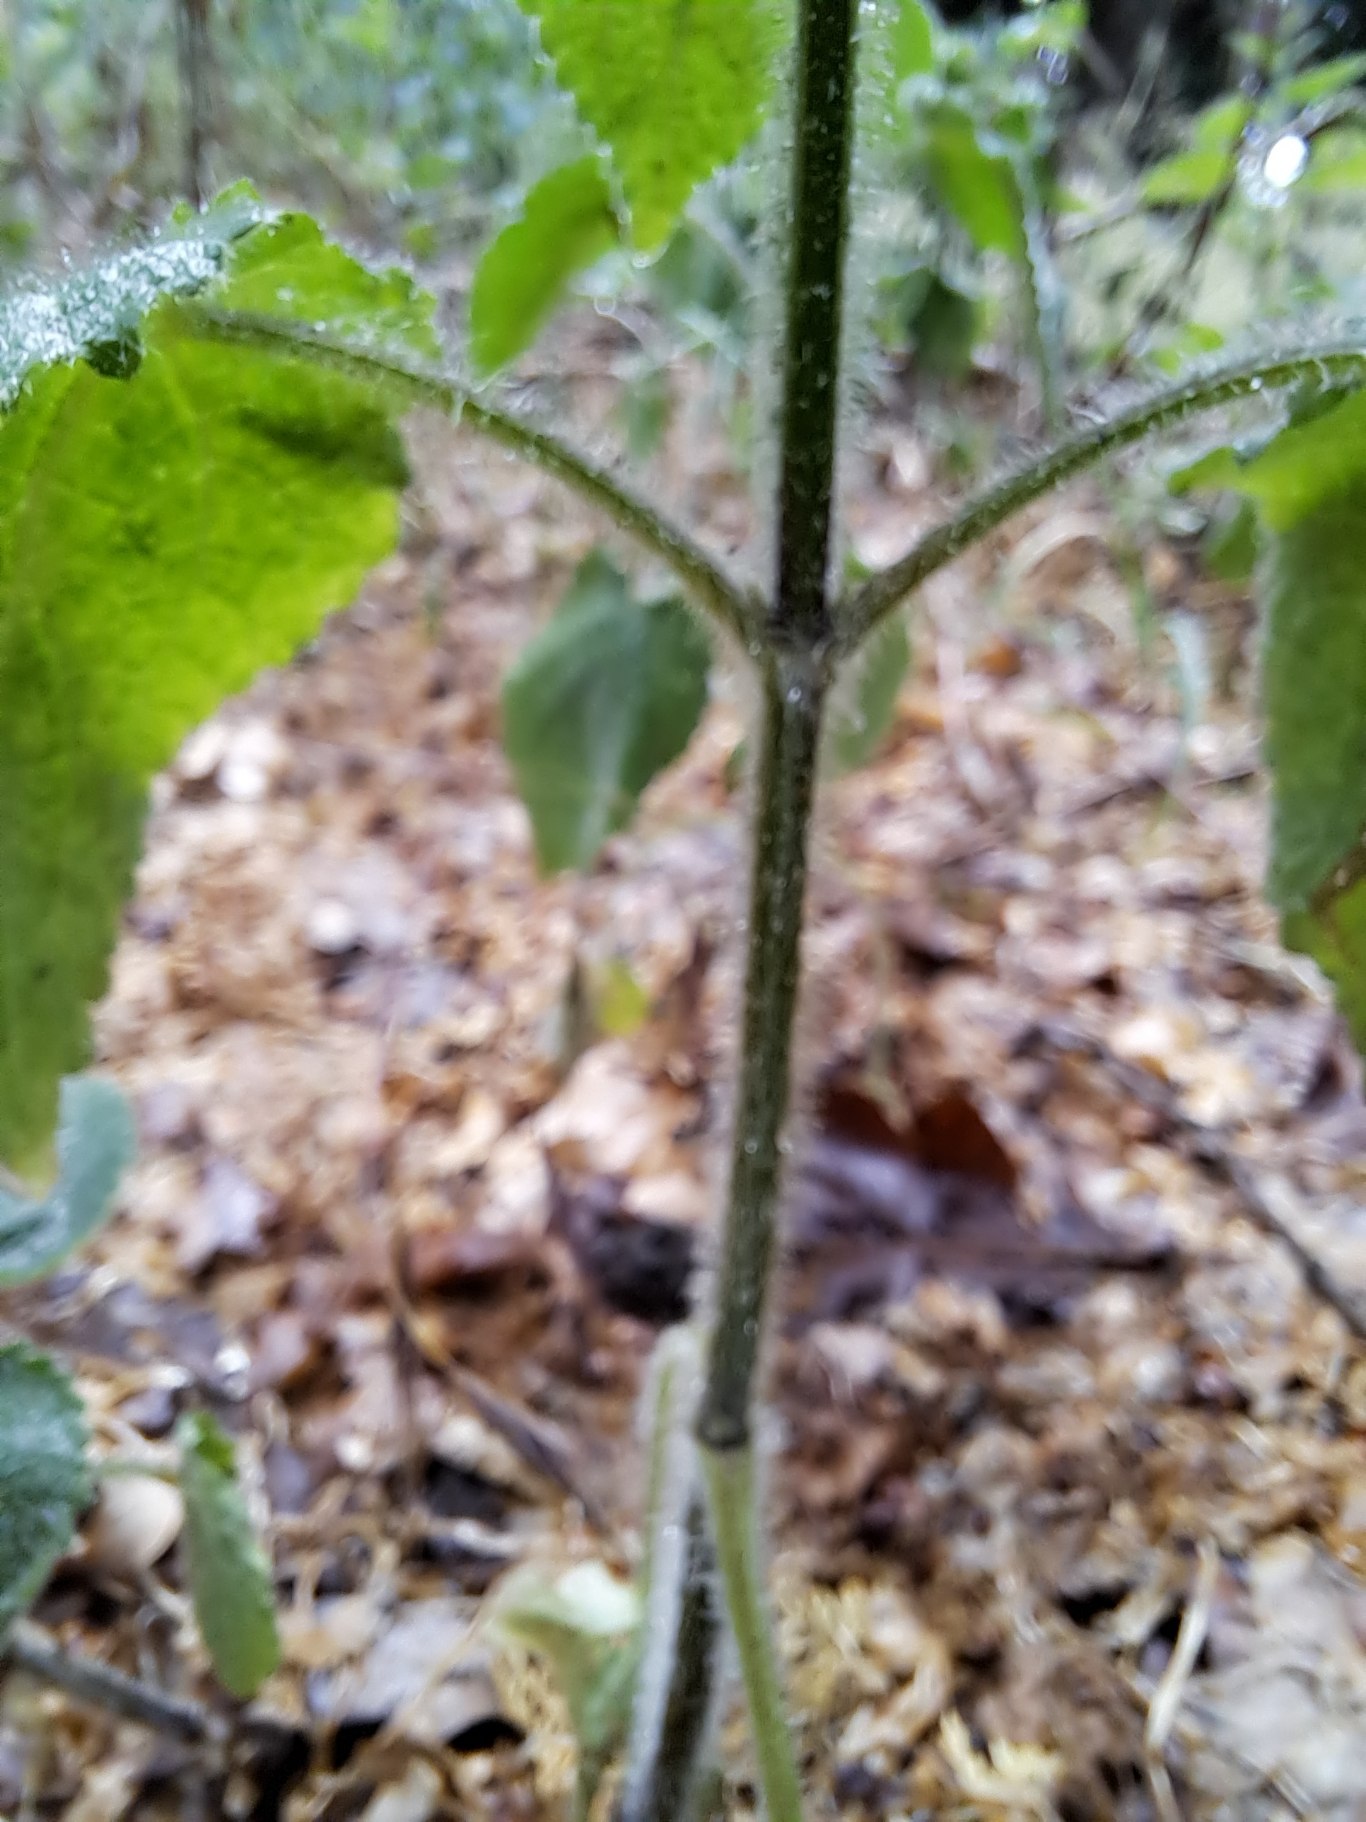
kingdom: Plantae
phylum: Tracheophyta
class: Magnoliopsida
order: Lamiales
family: Lamiaceae
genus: Stachys
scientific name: Stachys sylvatica
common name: Skov-galtetand
